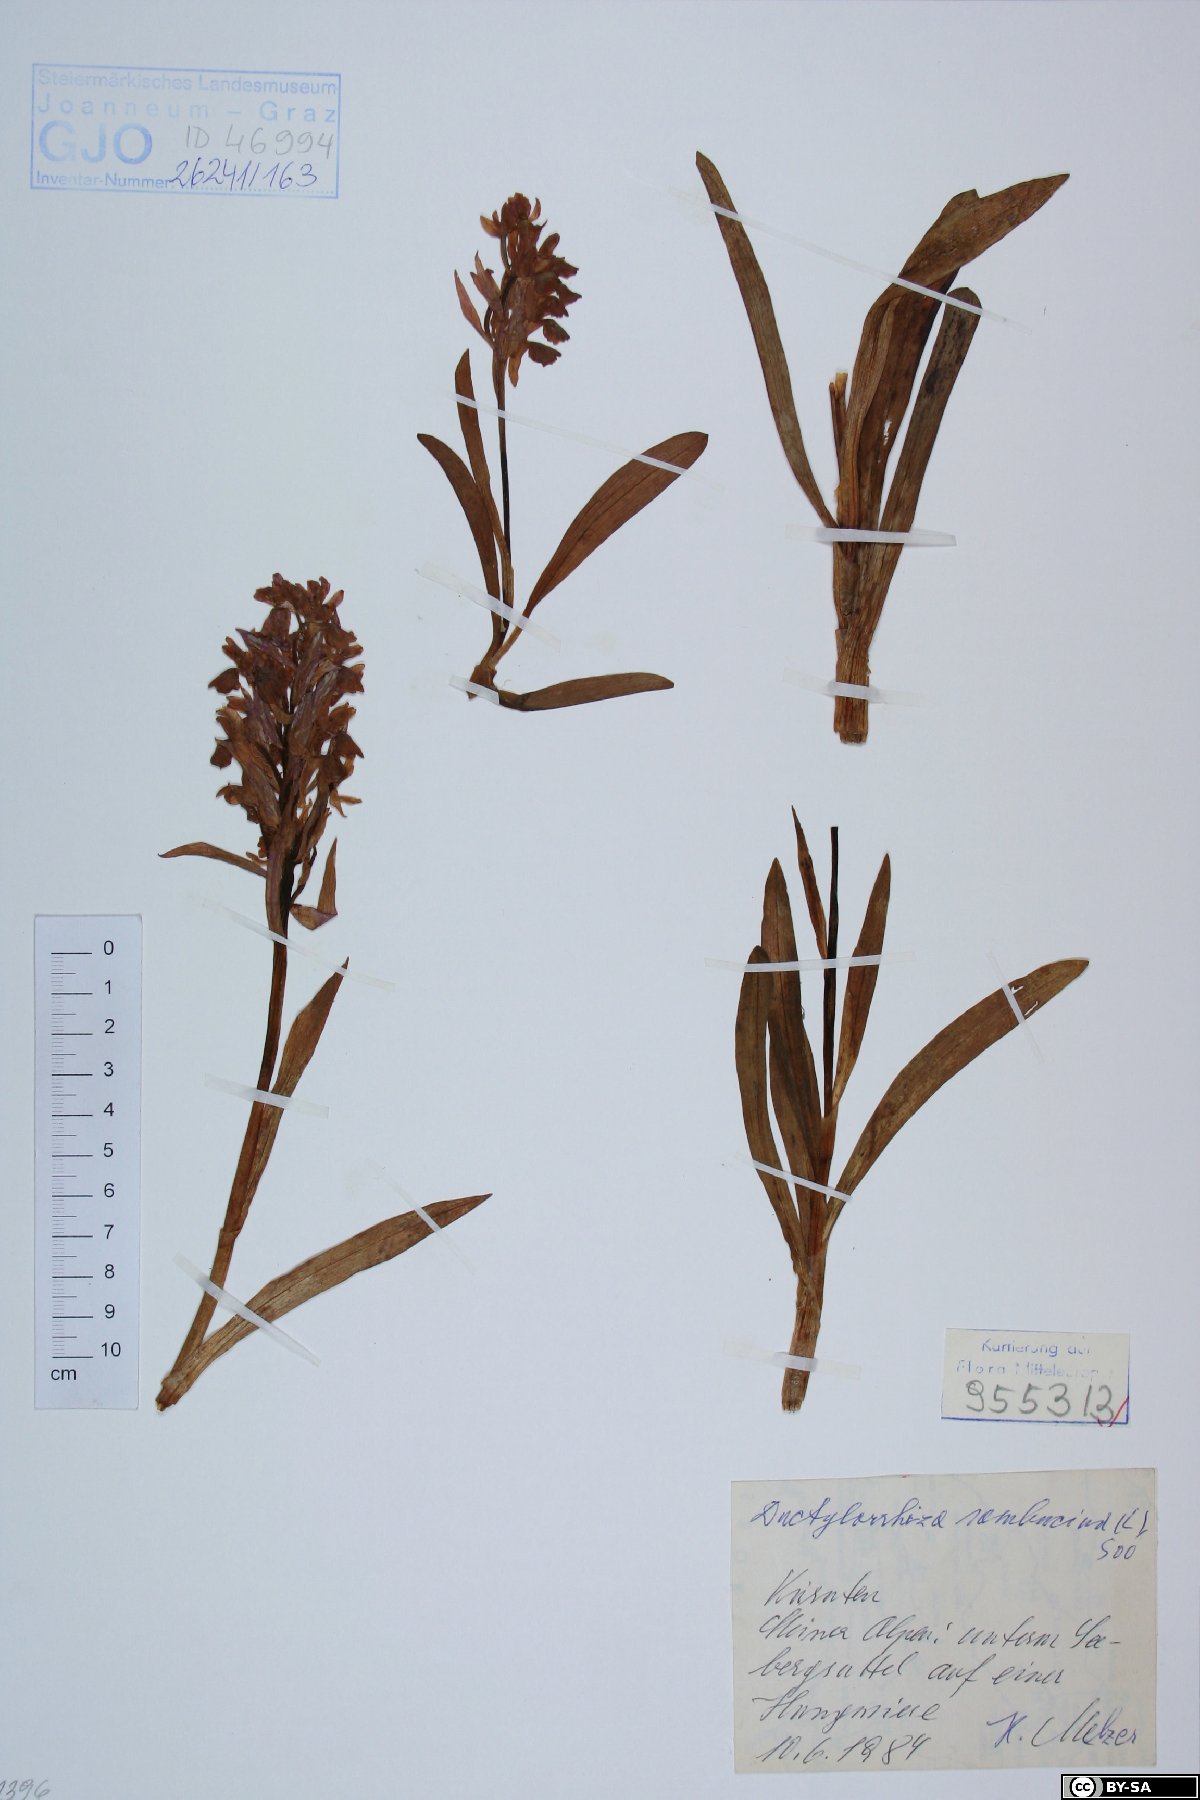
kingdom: Plantae
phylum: Tracheophyta
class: Liliopsida
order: Asparagales
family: Orchidaceae
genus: Dactylorhiza
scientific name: Dactylorhiza sambucina
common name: Elder-flowered orchid
